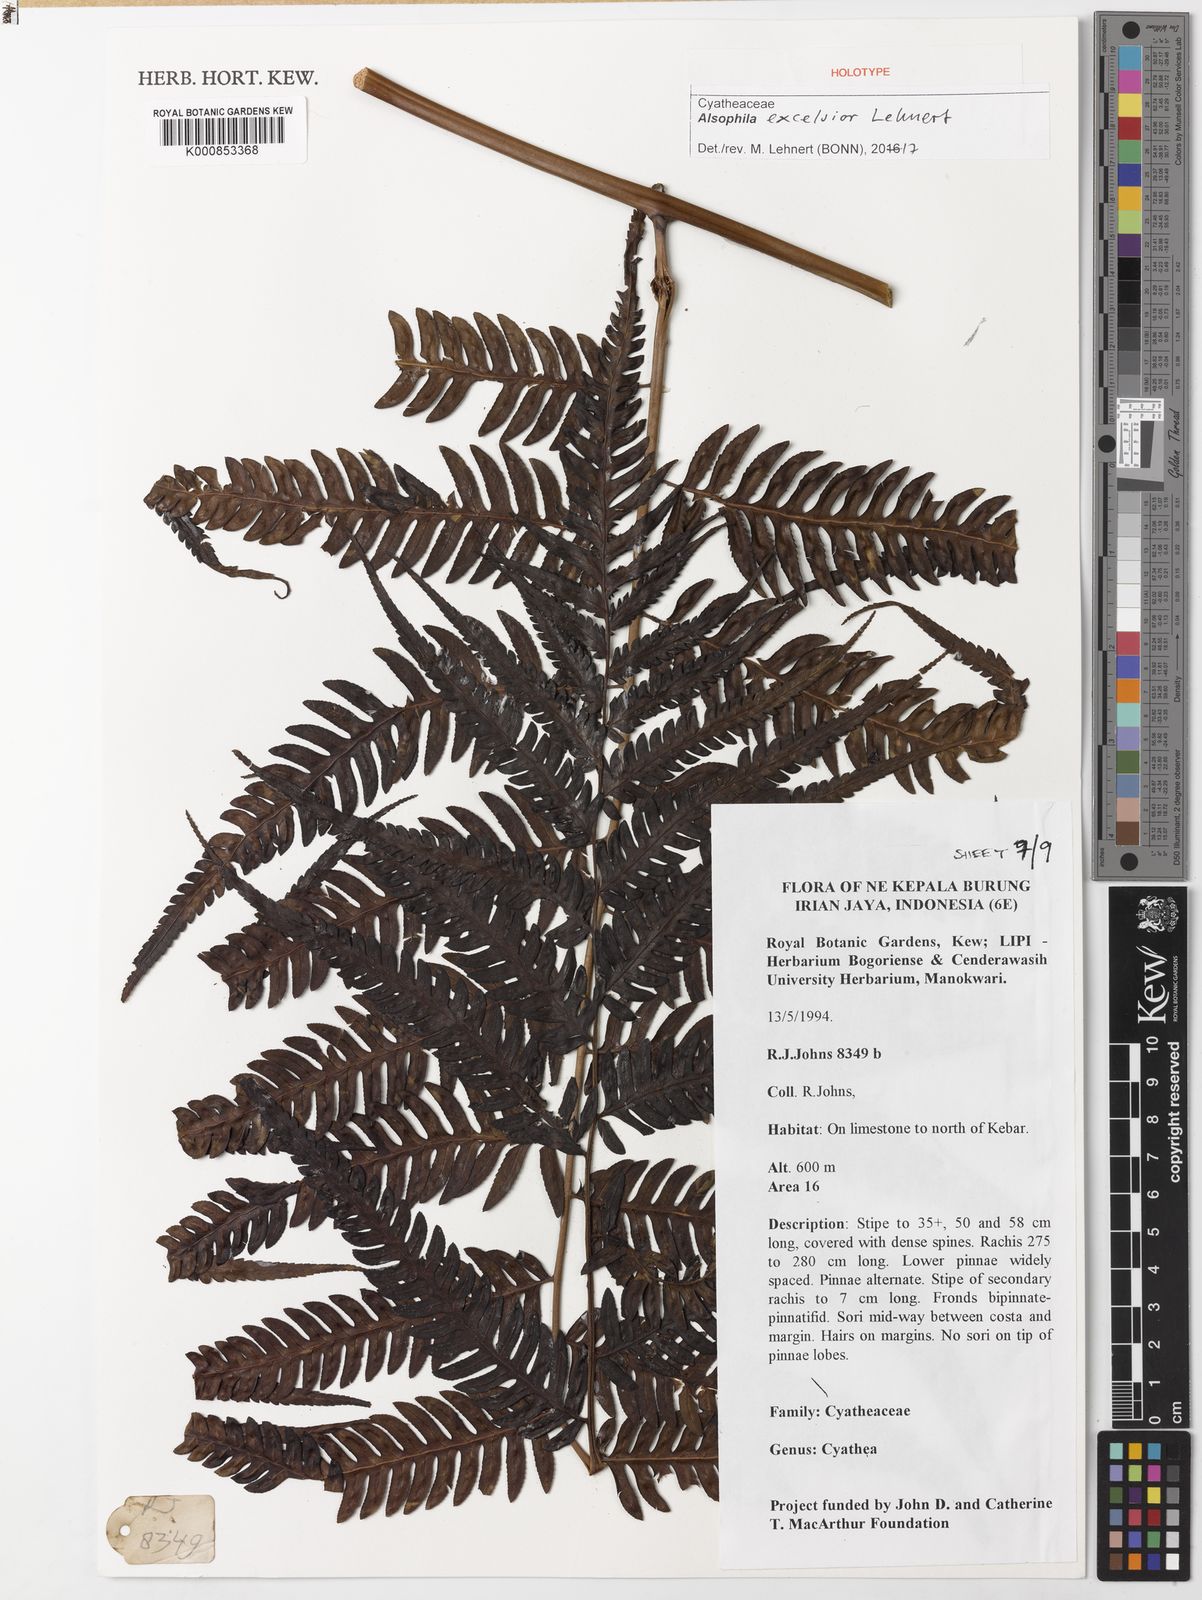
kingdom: Plantae
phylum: Tracheophyta
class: Polypodiopsida
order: Cyatheales
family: Cyatheaceae
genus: Alsophila
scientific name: Alsophila excelsior
